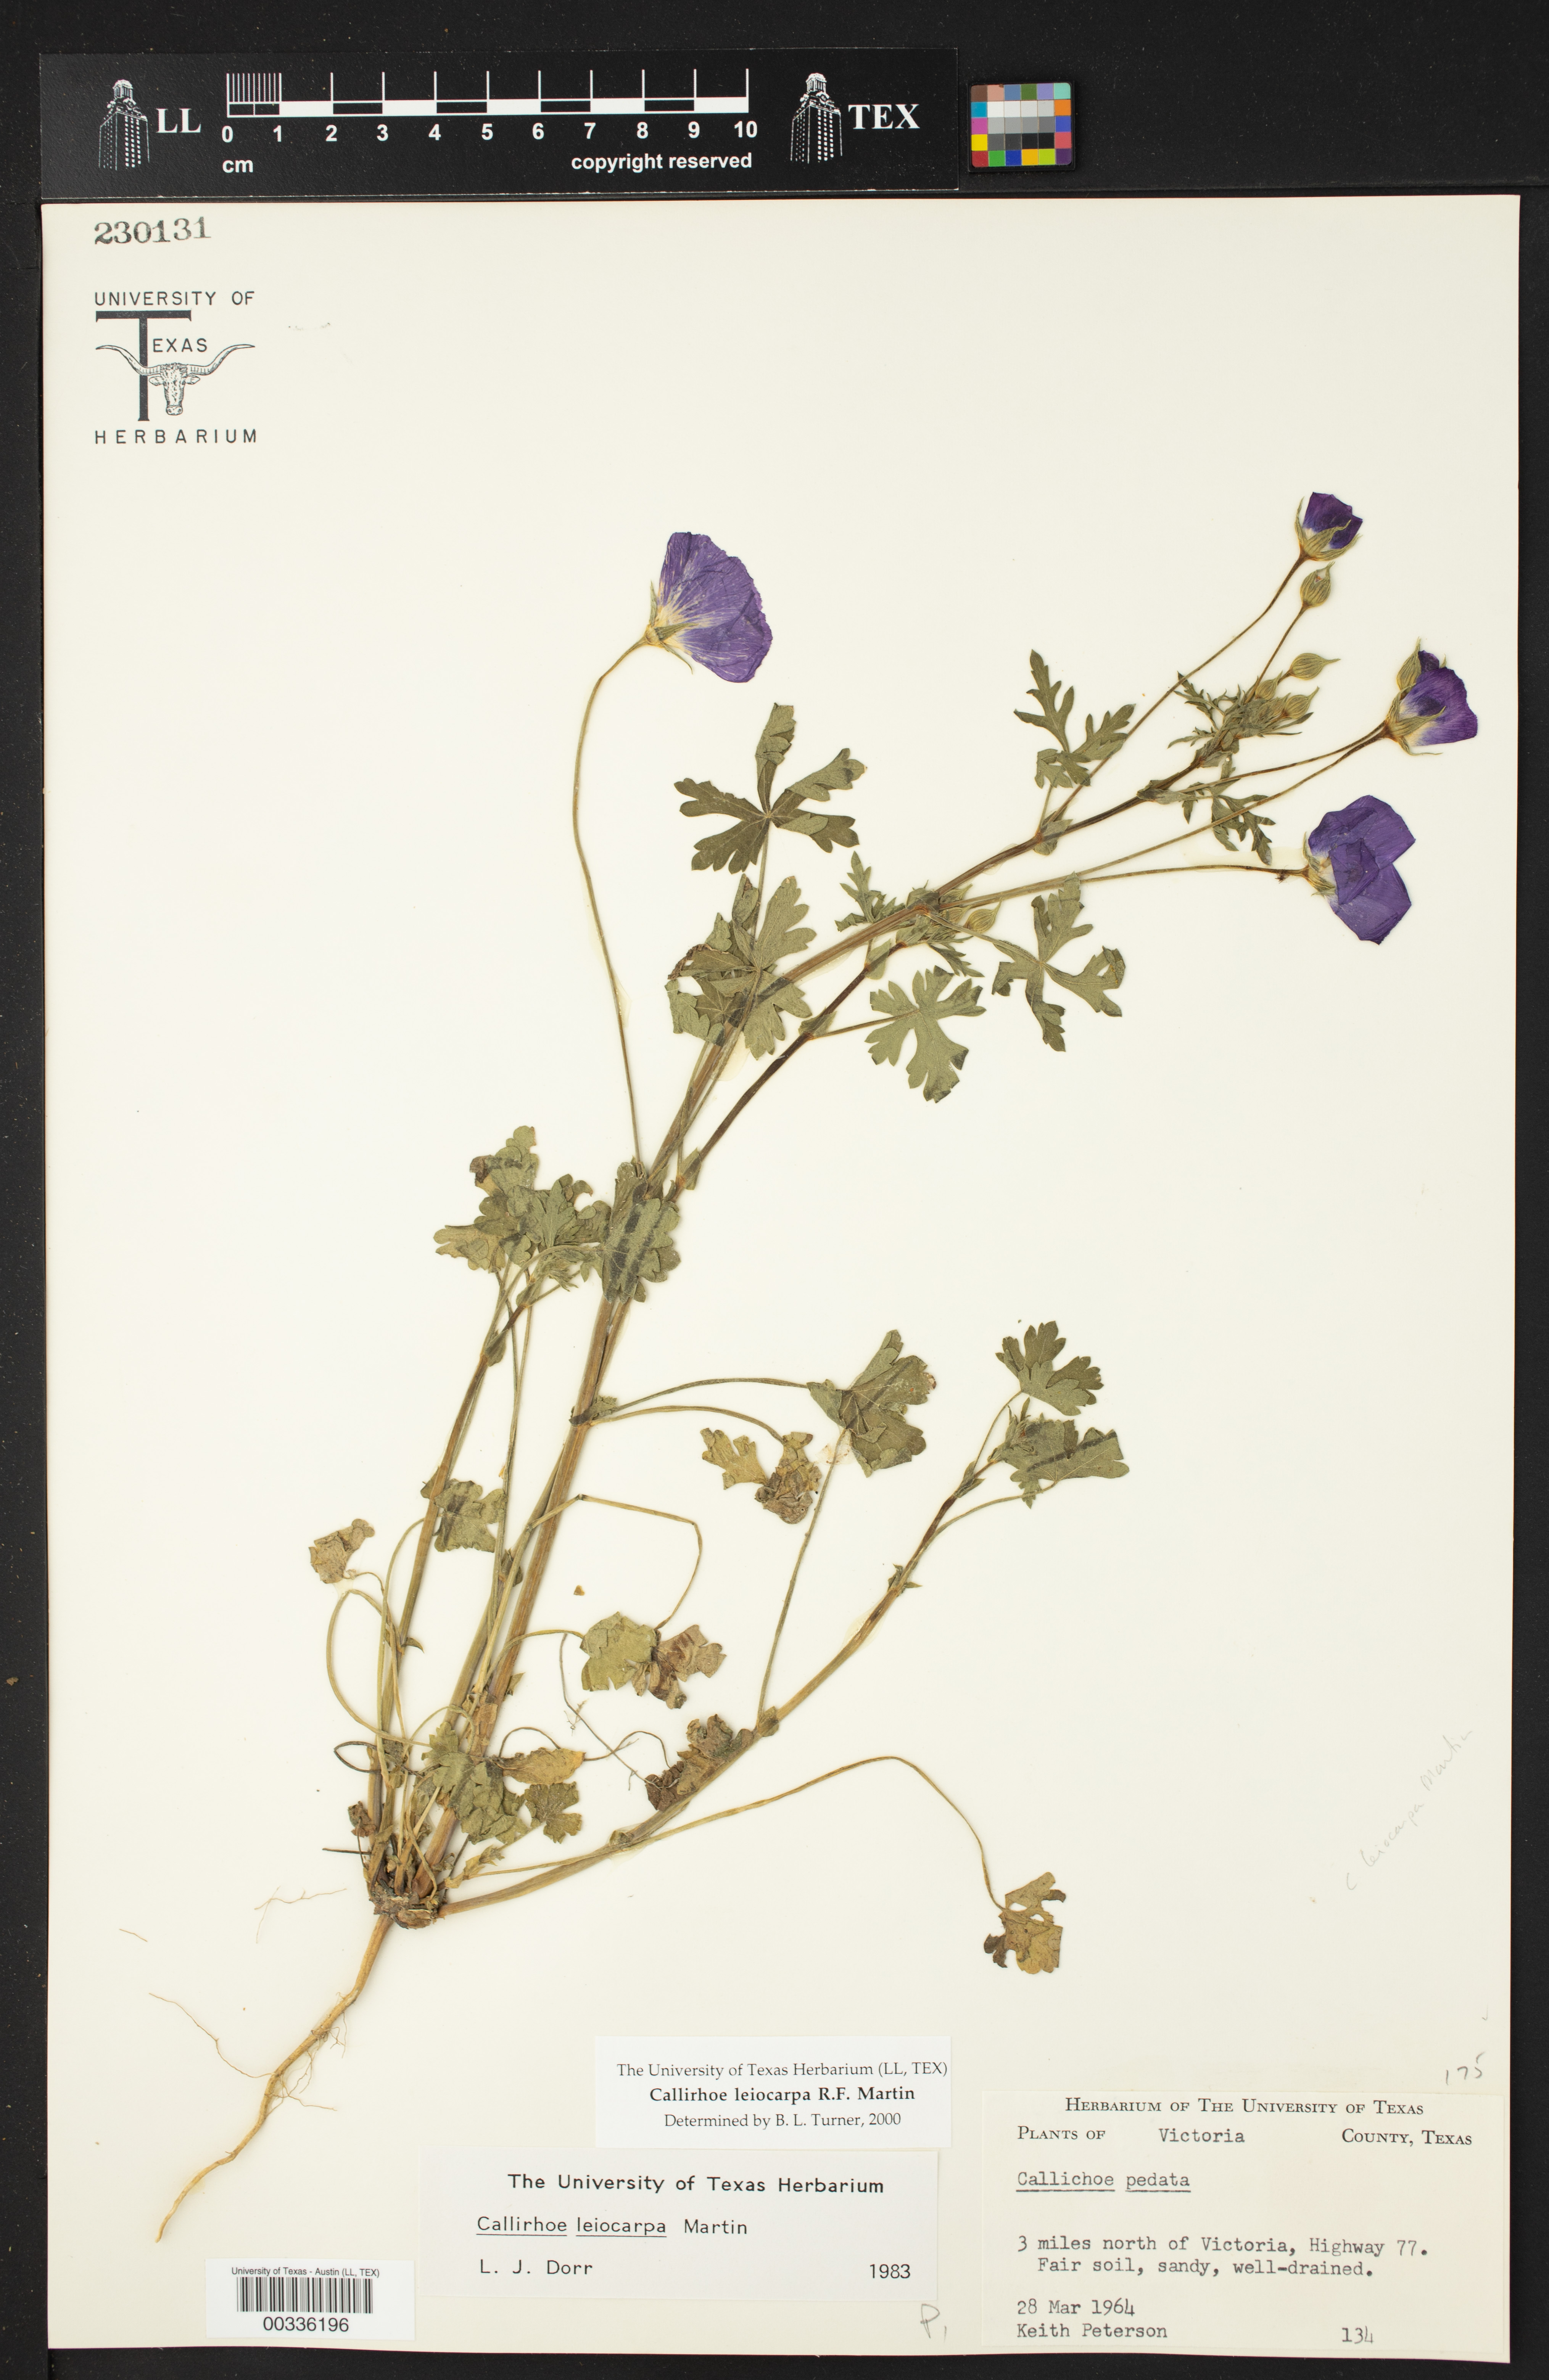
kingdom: Plantae
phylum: Tracheophyta
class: Magnoliopsida
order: Malvales
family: Malvaceae
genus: Callirhoe
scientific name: Callirhoe leiocarpa
